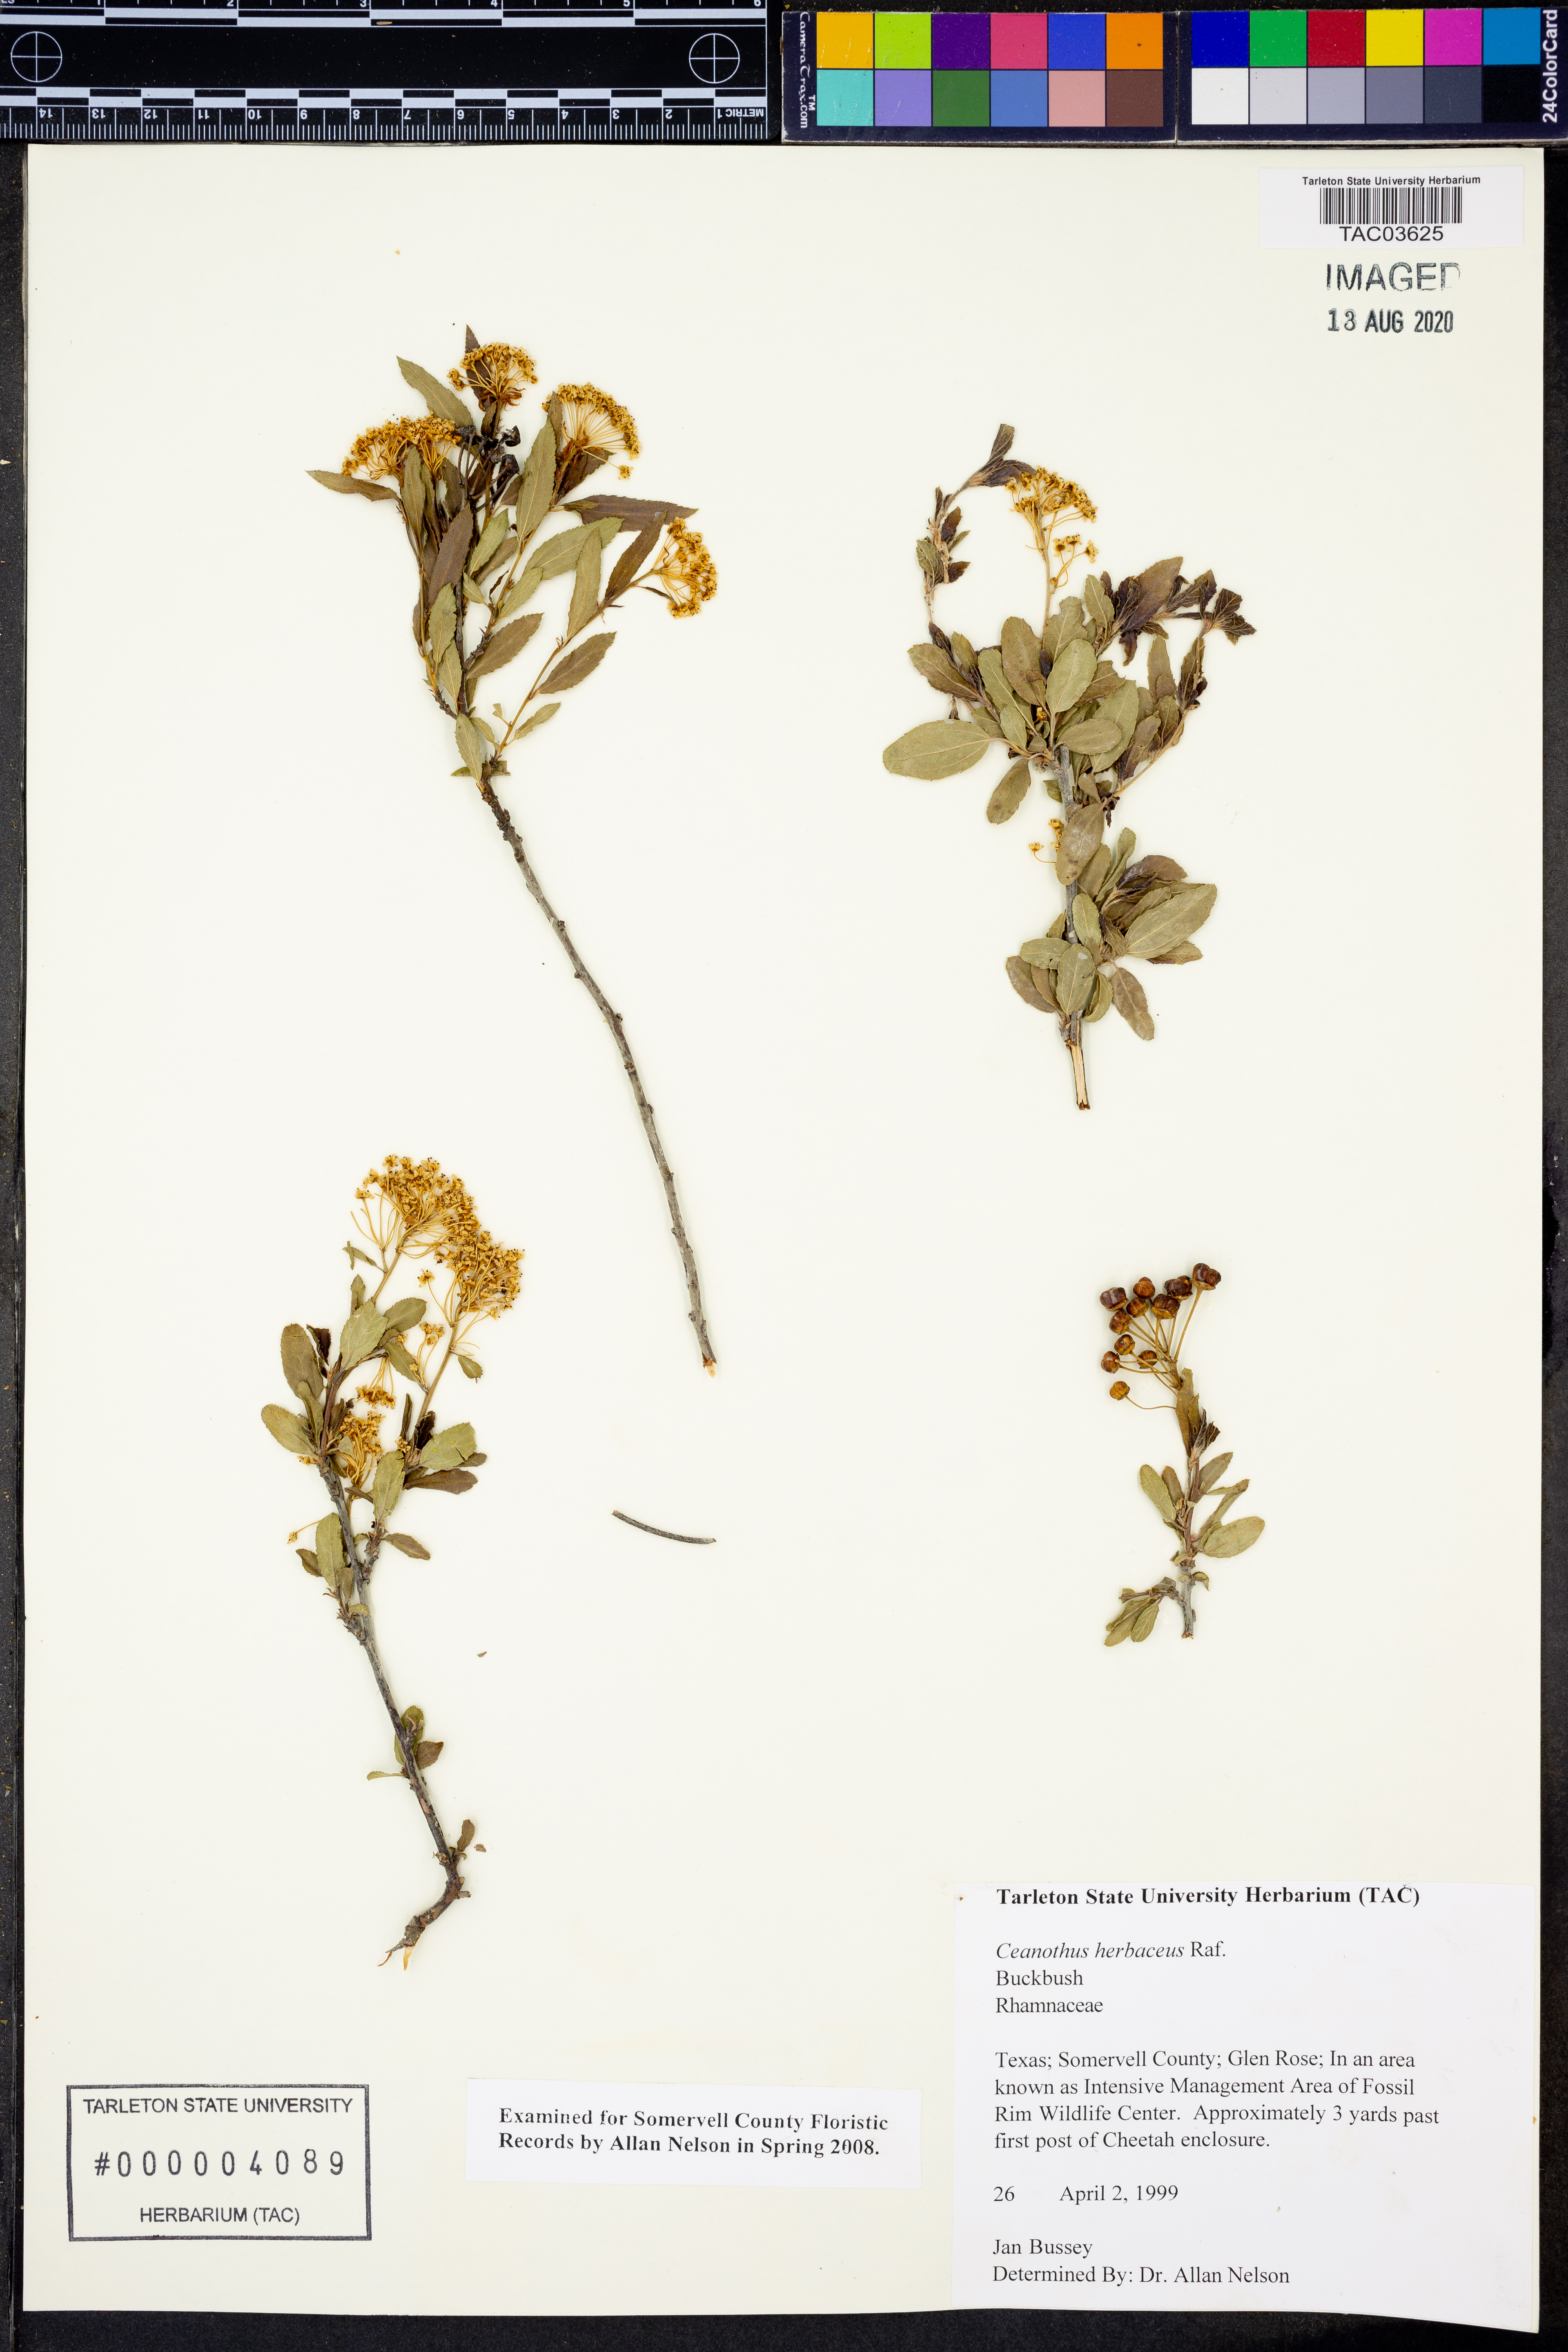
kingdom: Plantae
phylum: Tracheophyta
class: Magnoliopsida
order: Rosales
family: Rhamnaceae
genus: Ceanothus
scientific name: Ceanothus herbaceus
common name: Inland ceanothus
